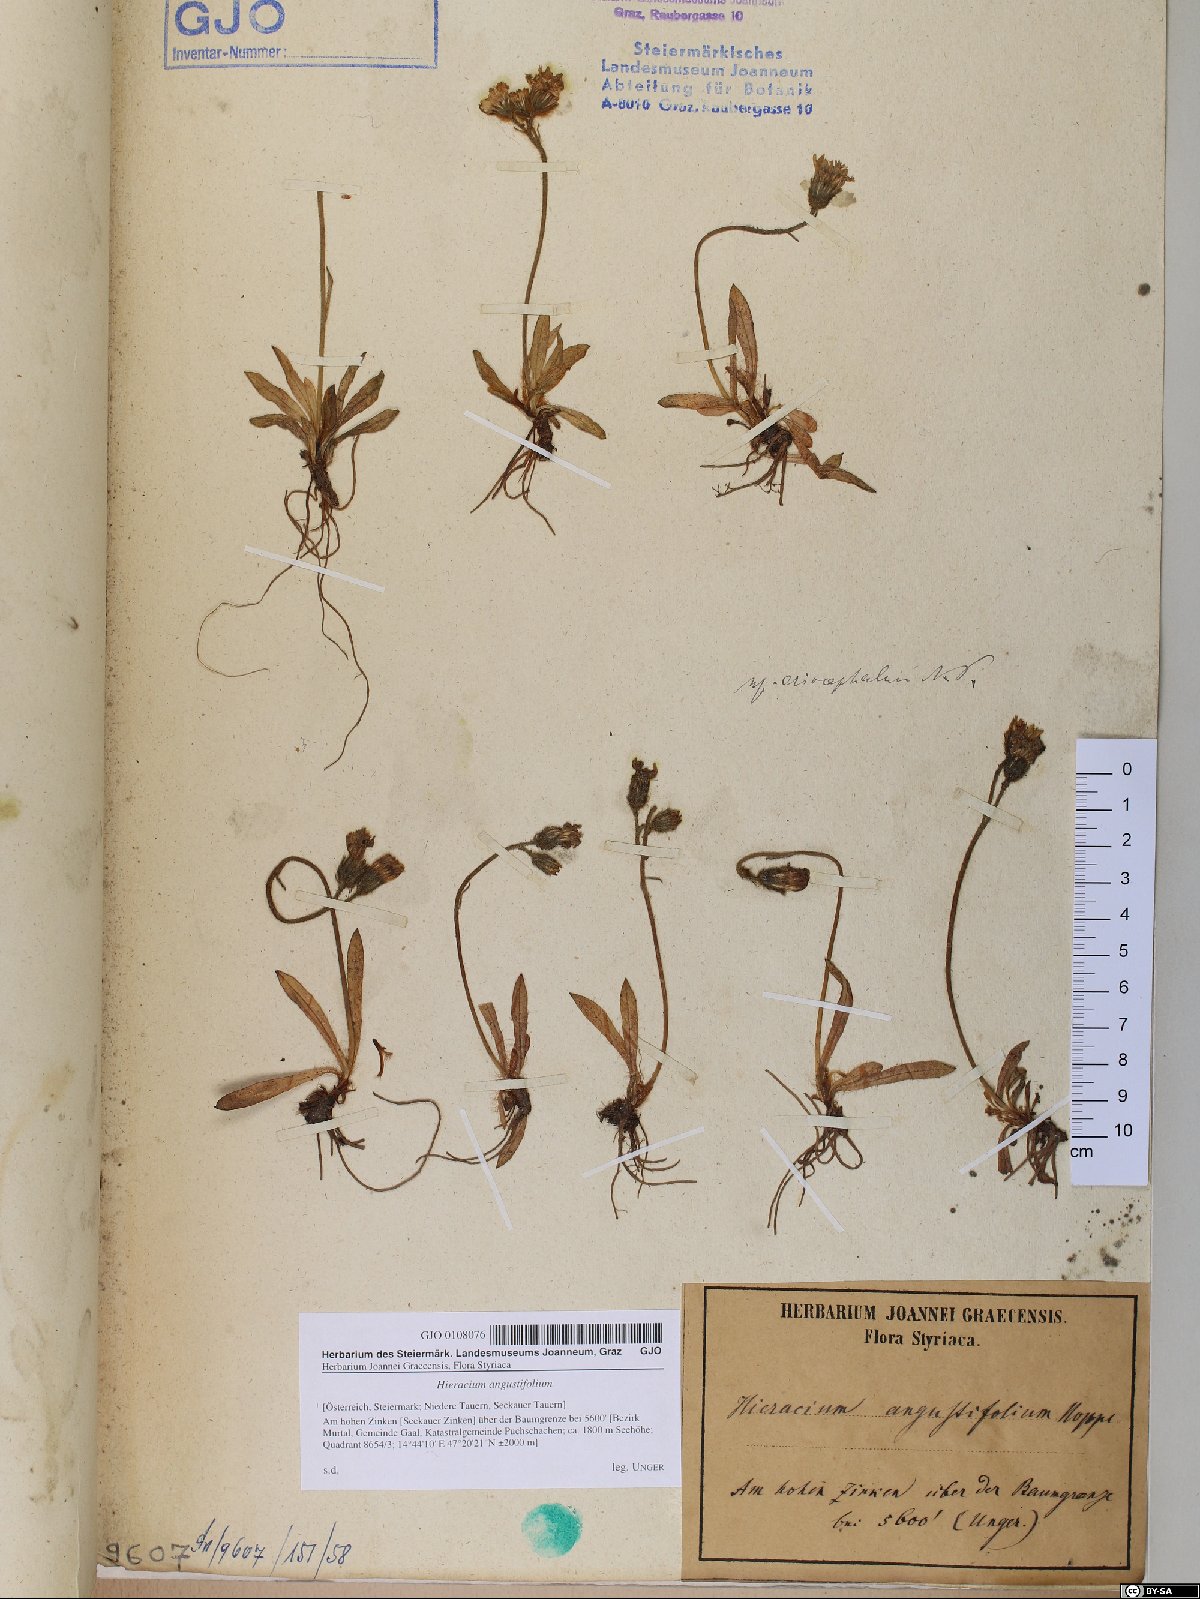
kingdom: Plantae
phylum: Tracheophyta
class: Magnoliopsida
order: Asterales
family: Asteraceae
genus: Pilosella
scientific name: Pilosella glacialis
